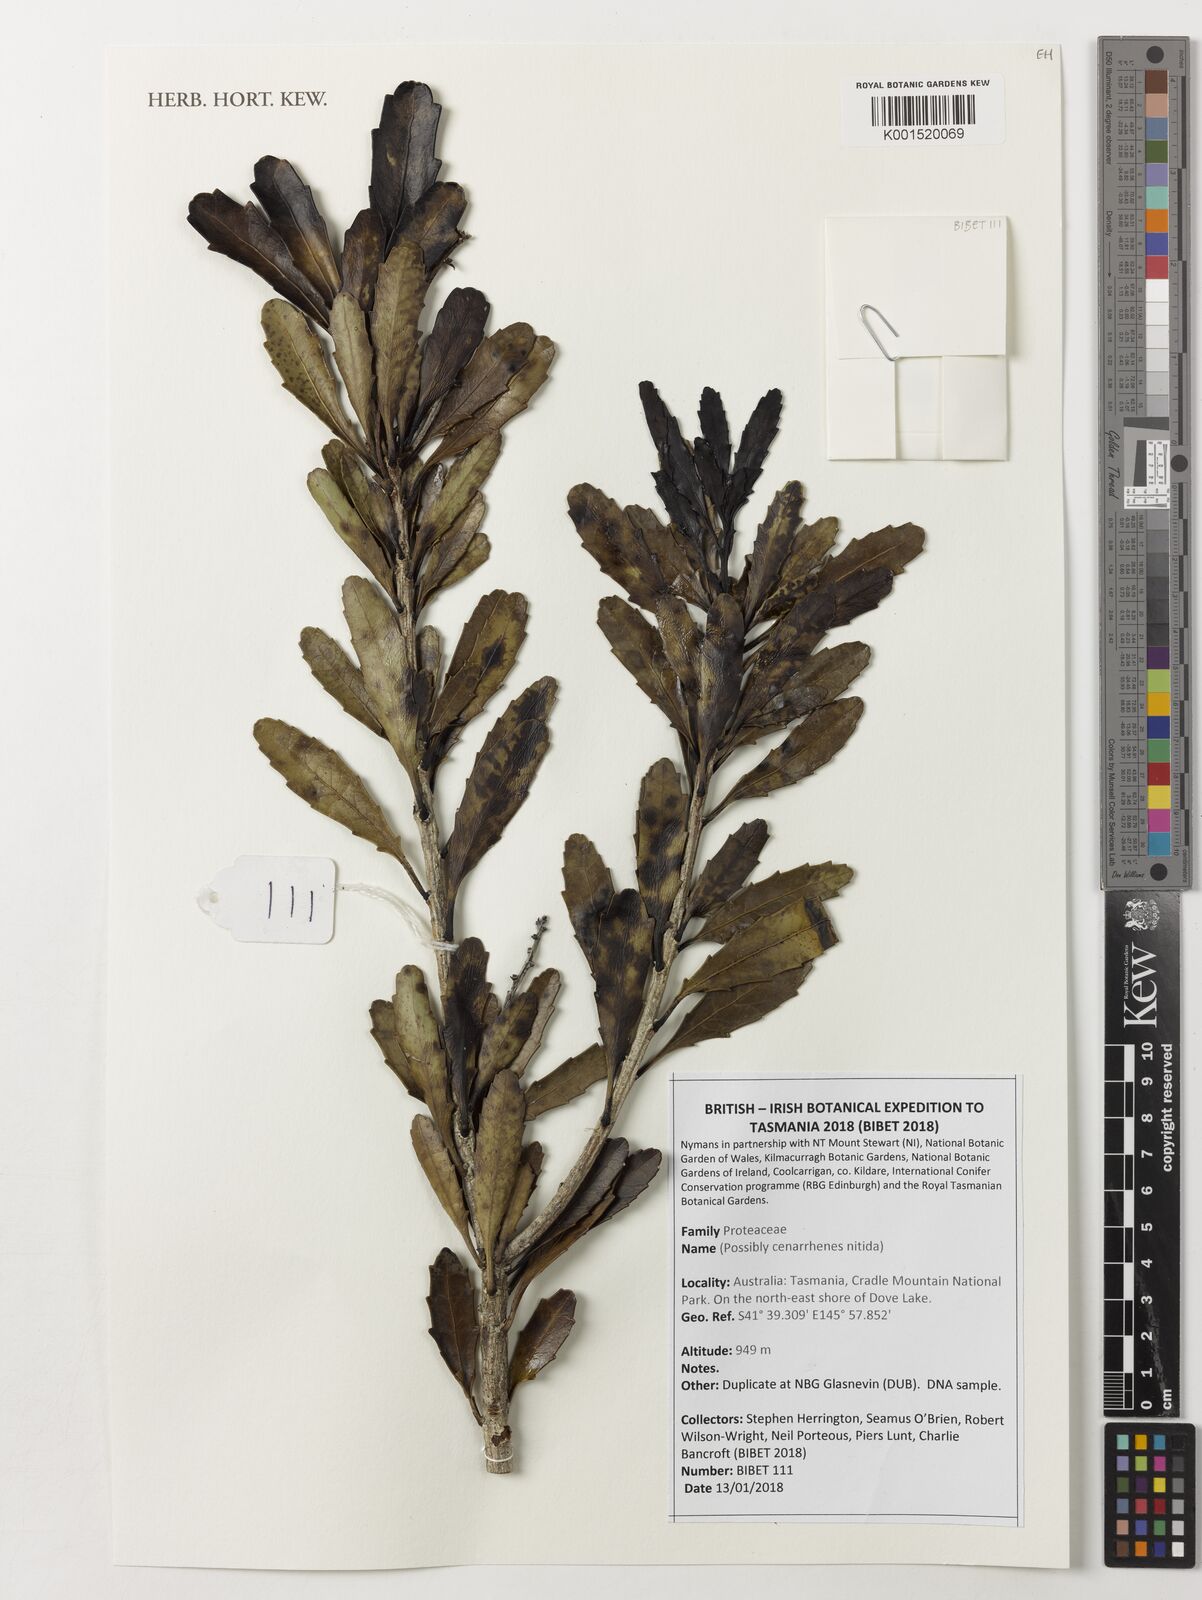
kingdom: Plantae
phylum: Tracheophyta
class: Magnoliopsida
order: Proteales
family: Proteaceae
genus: Cenarrhenes
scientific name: Cenarrhenes nitida
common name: Native plum
